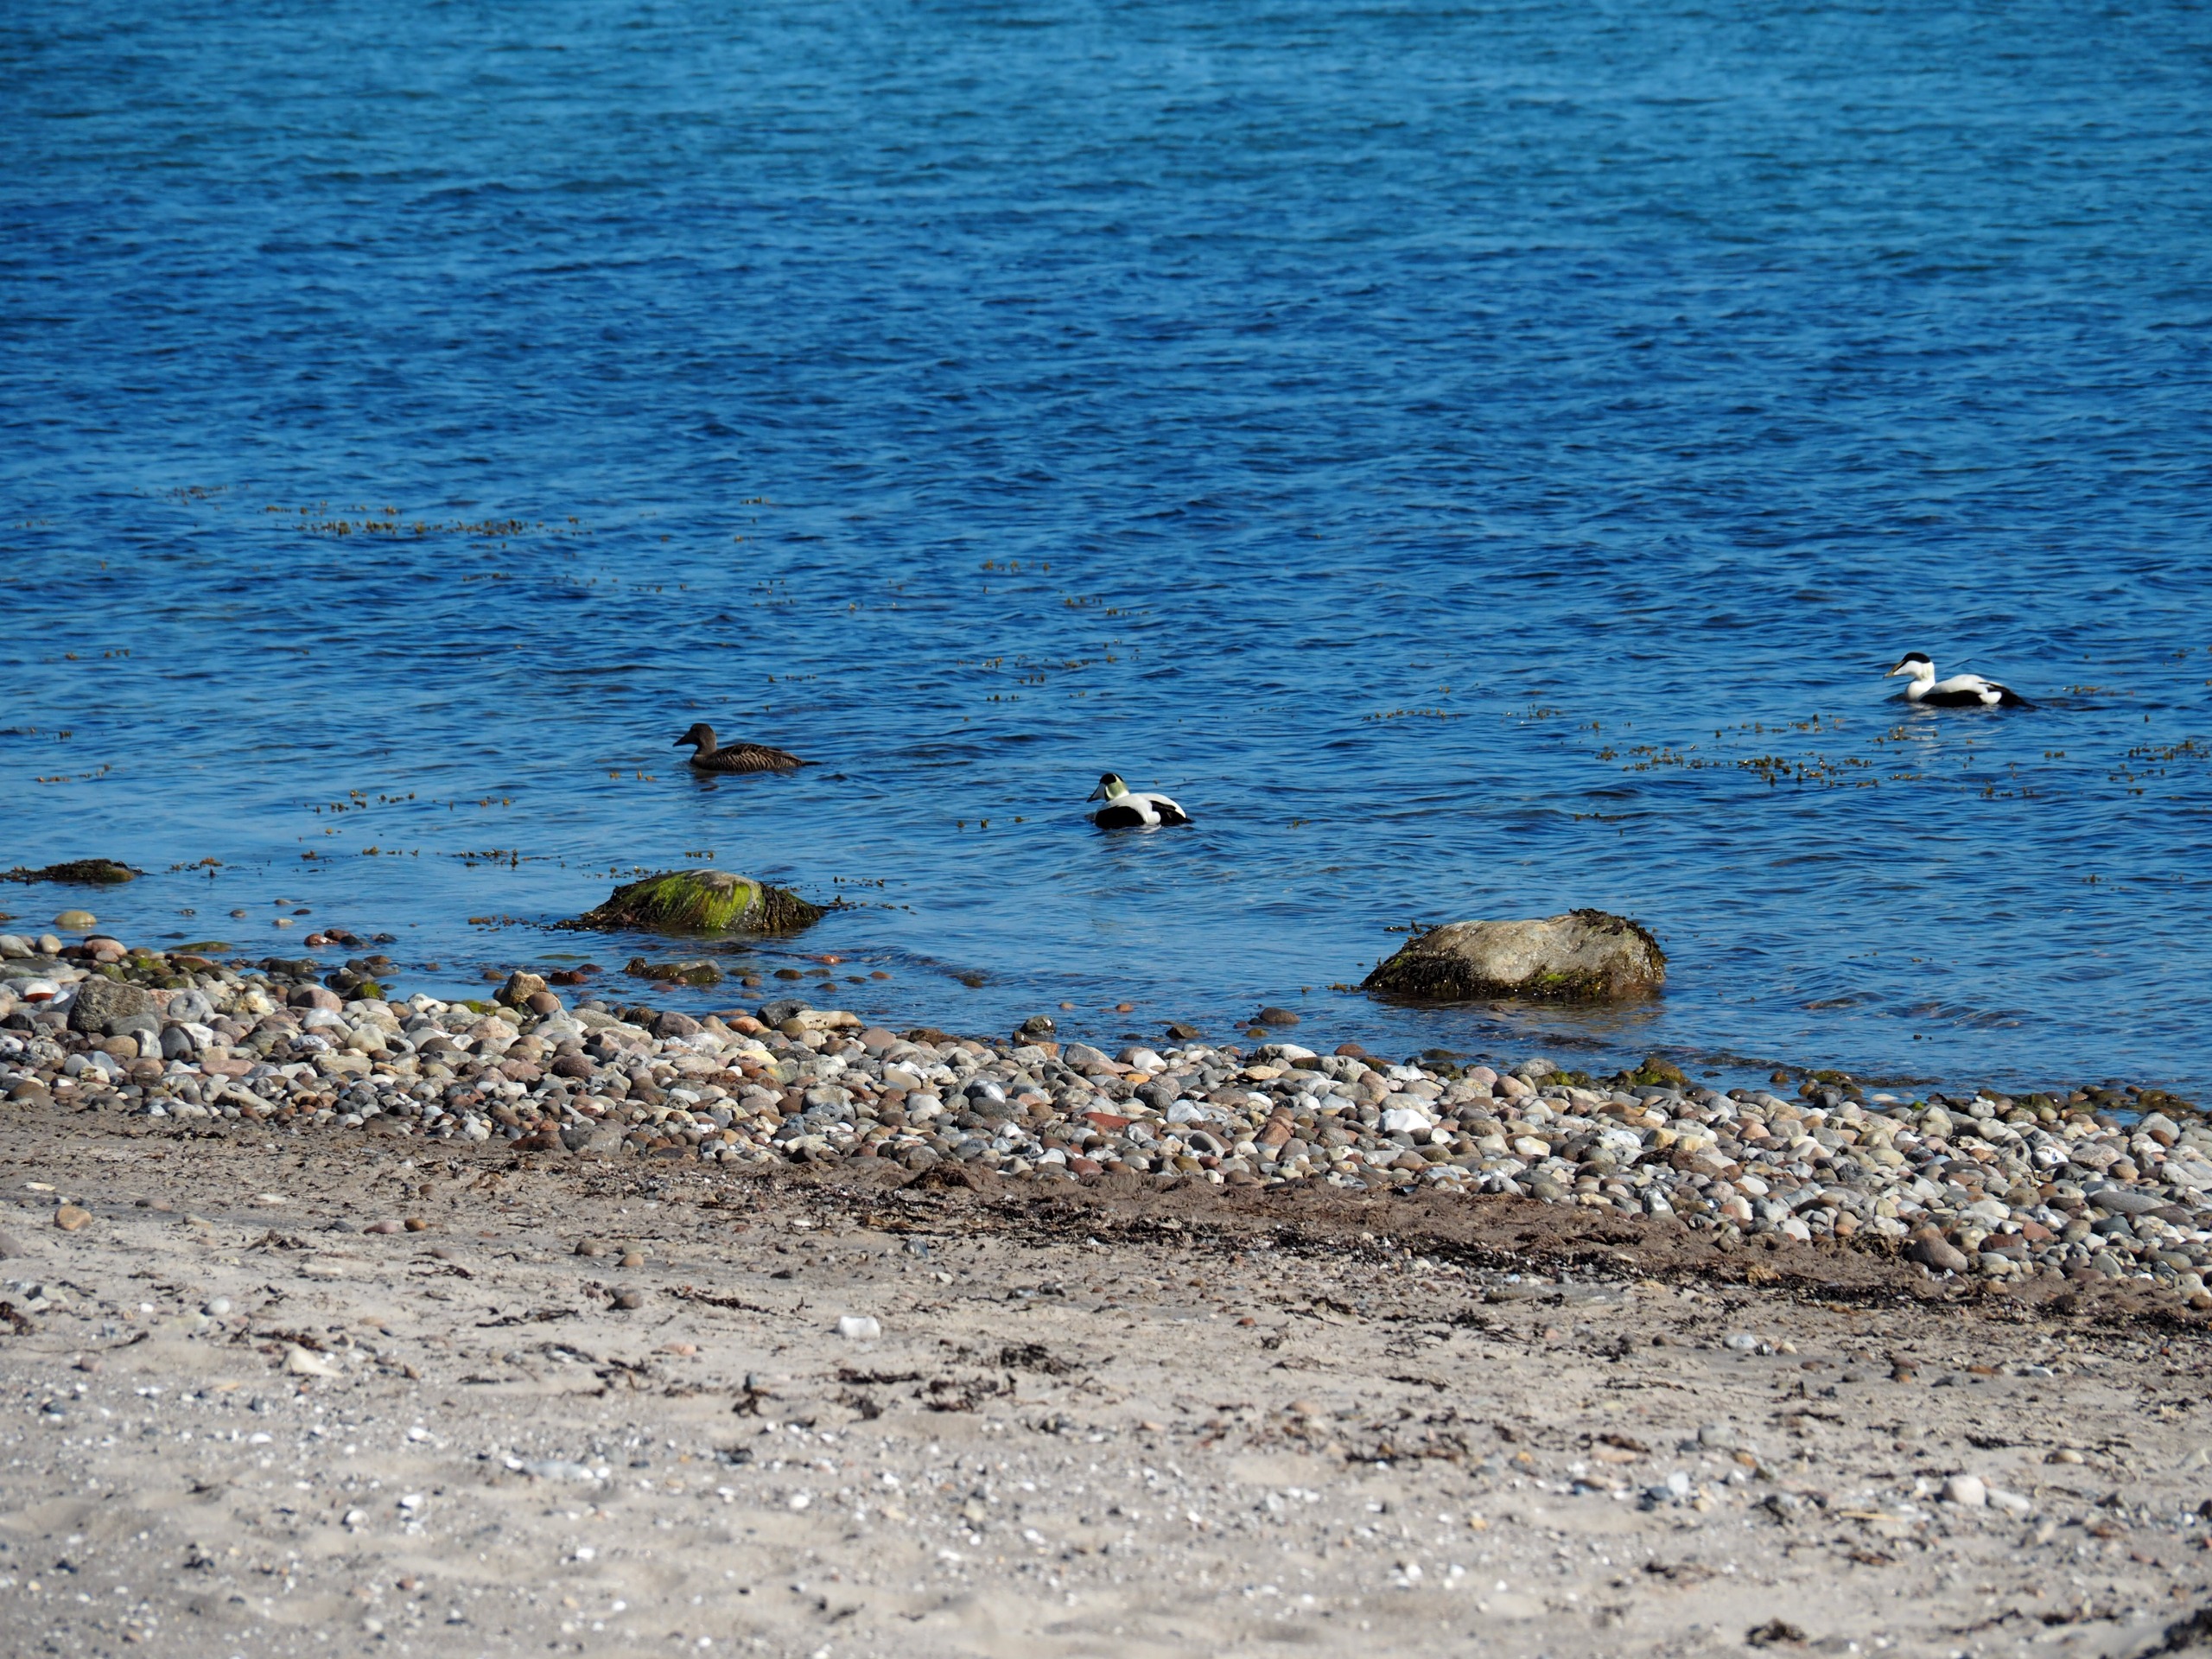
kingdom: Animalia
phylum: Chordata
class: Aves
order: Anseriformes
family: Anatidae
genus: Somateria
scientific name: Somateria mollissima
